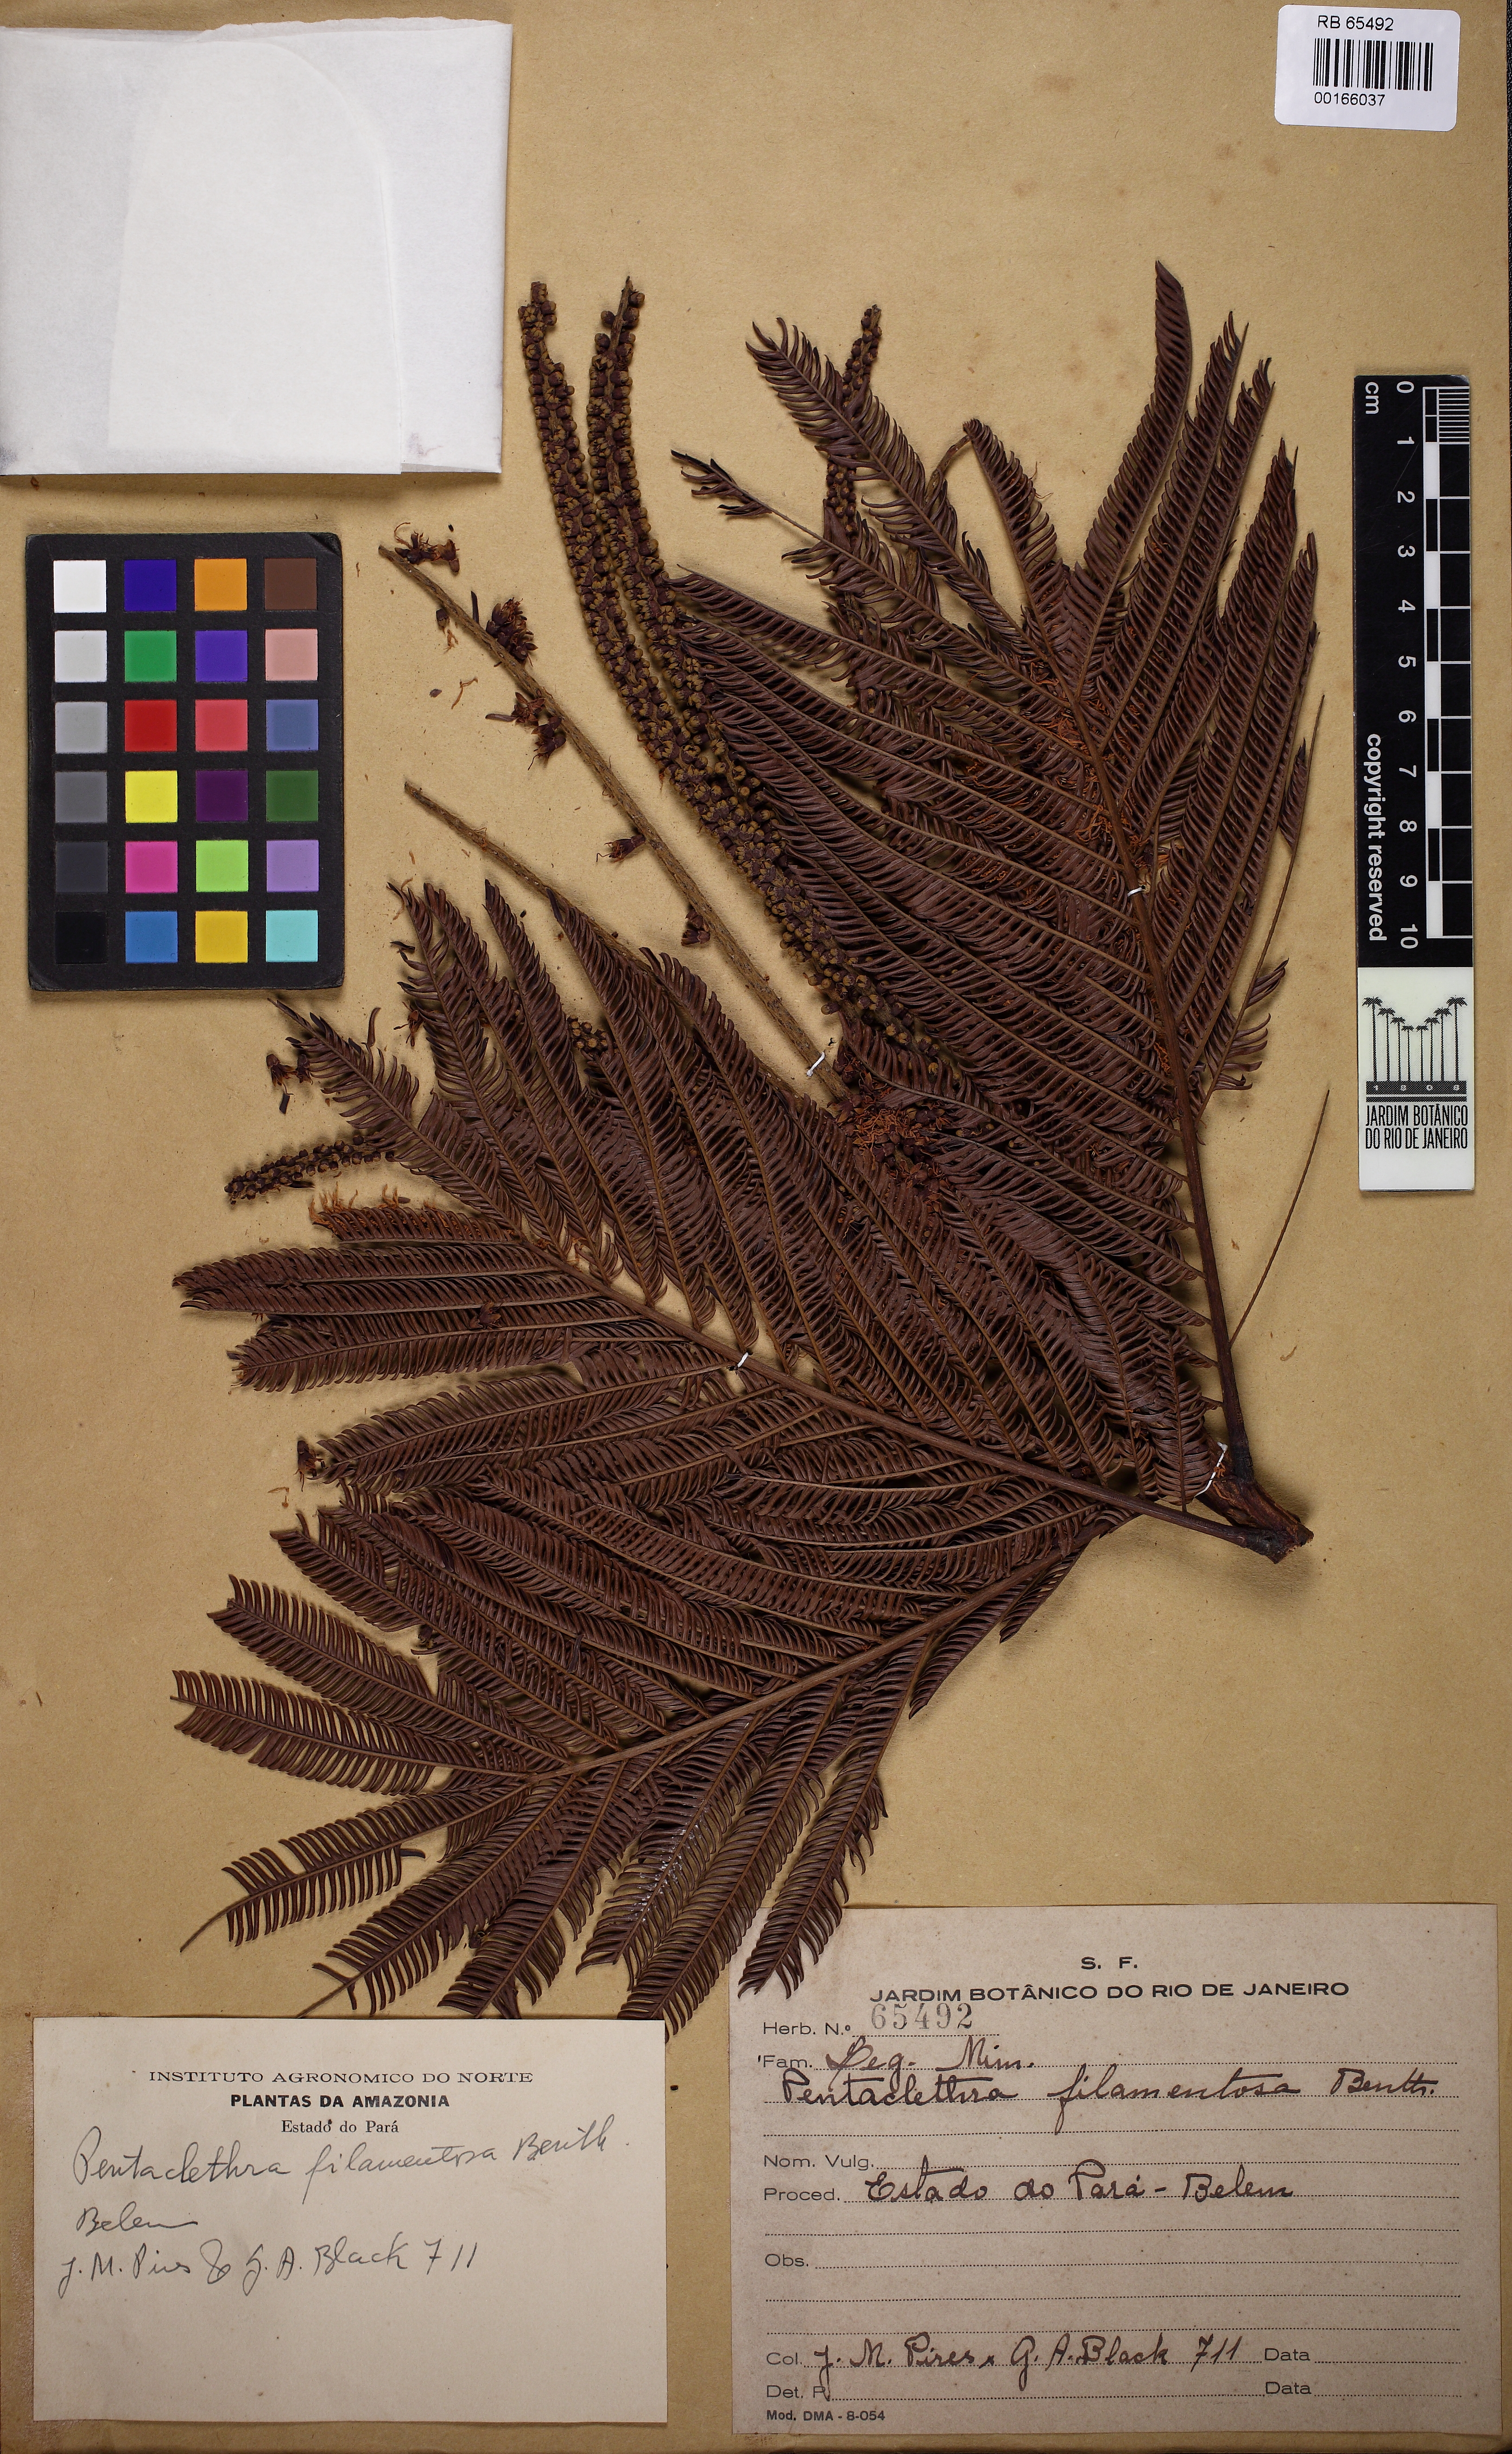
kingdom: Plantae
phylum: Tracheophyta
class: Magnoliopsida
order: Fabales
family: Fabaceae
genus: Pentaclethra
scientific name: Pentaclethra macroloba
